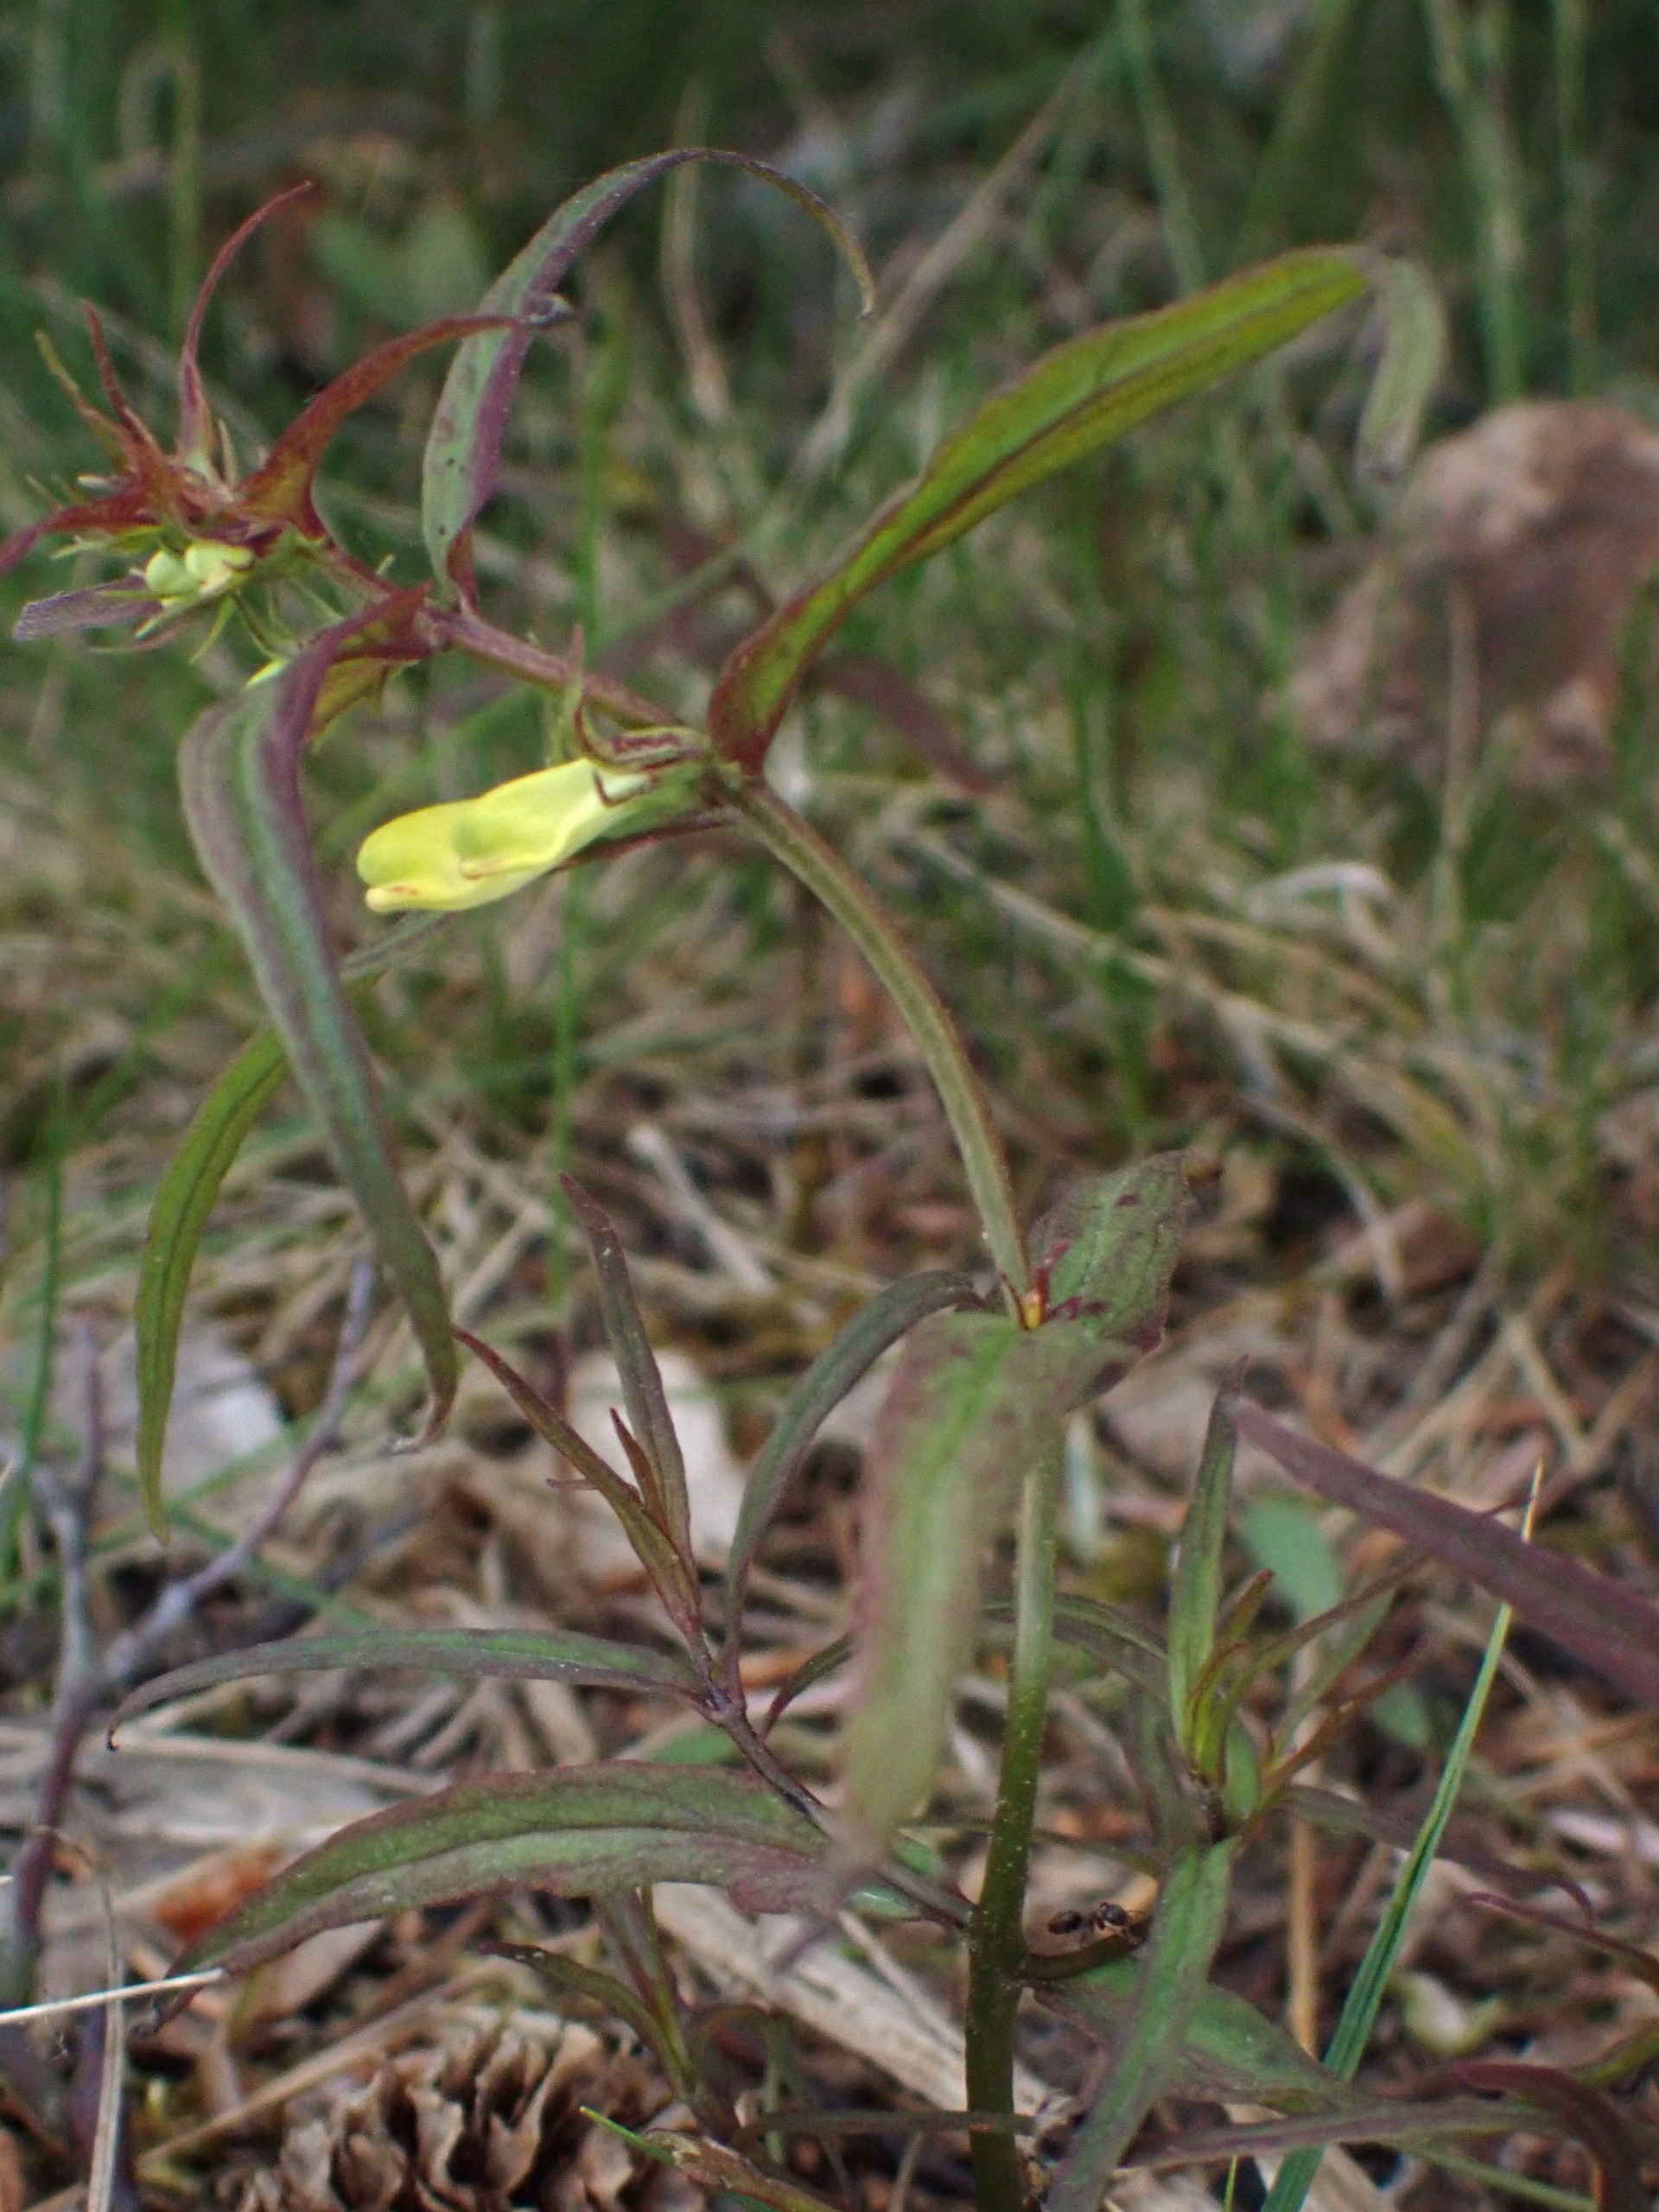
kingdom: Plantae
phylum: Tracheophyta
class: Magnoliopsida
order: Lamiales
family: Orobanchaceae
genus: Melampyrum
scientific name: Melampyrum pratense
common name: Almindelig kohvede
